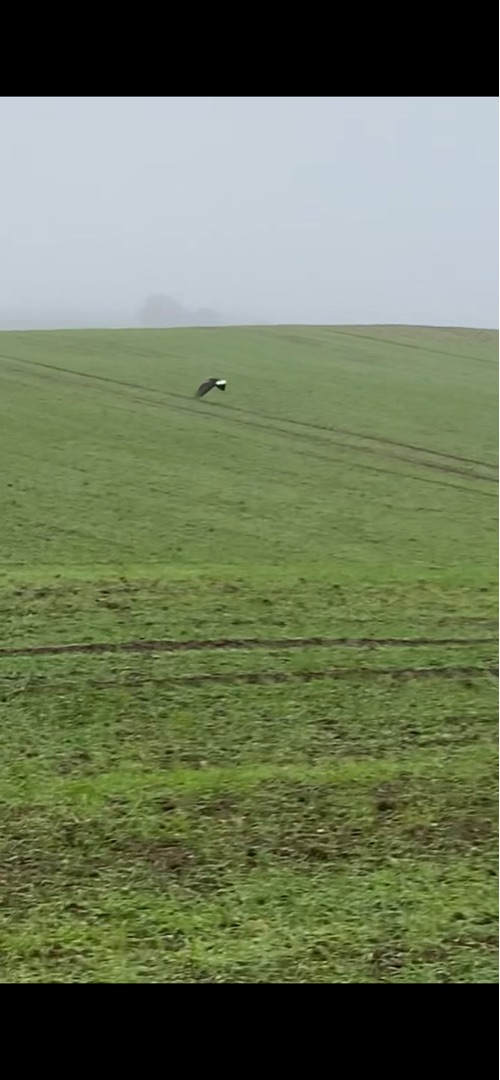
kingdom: Animalia
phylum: Chordata
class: Aves
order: Accipitriformes
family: Accipitridae
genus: Haliaeetus
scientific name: Haliaeetus albicilla
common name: Havørn
